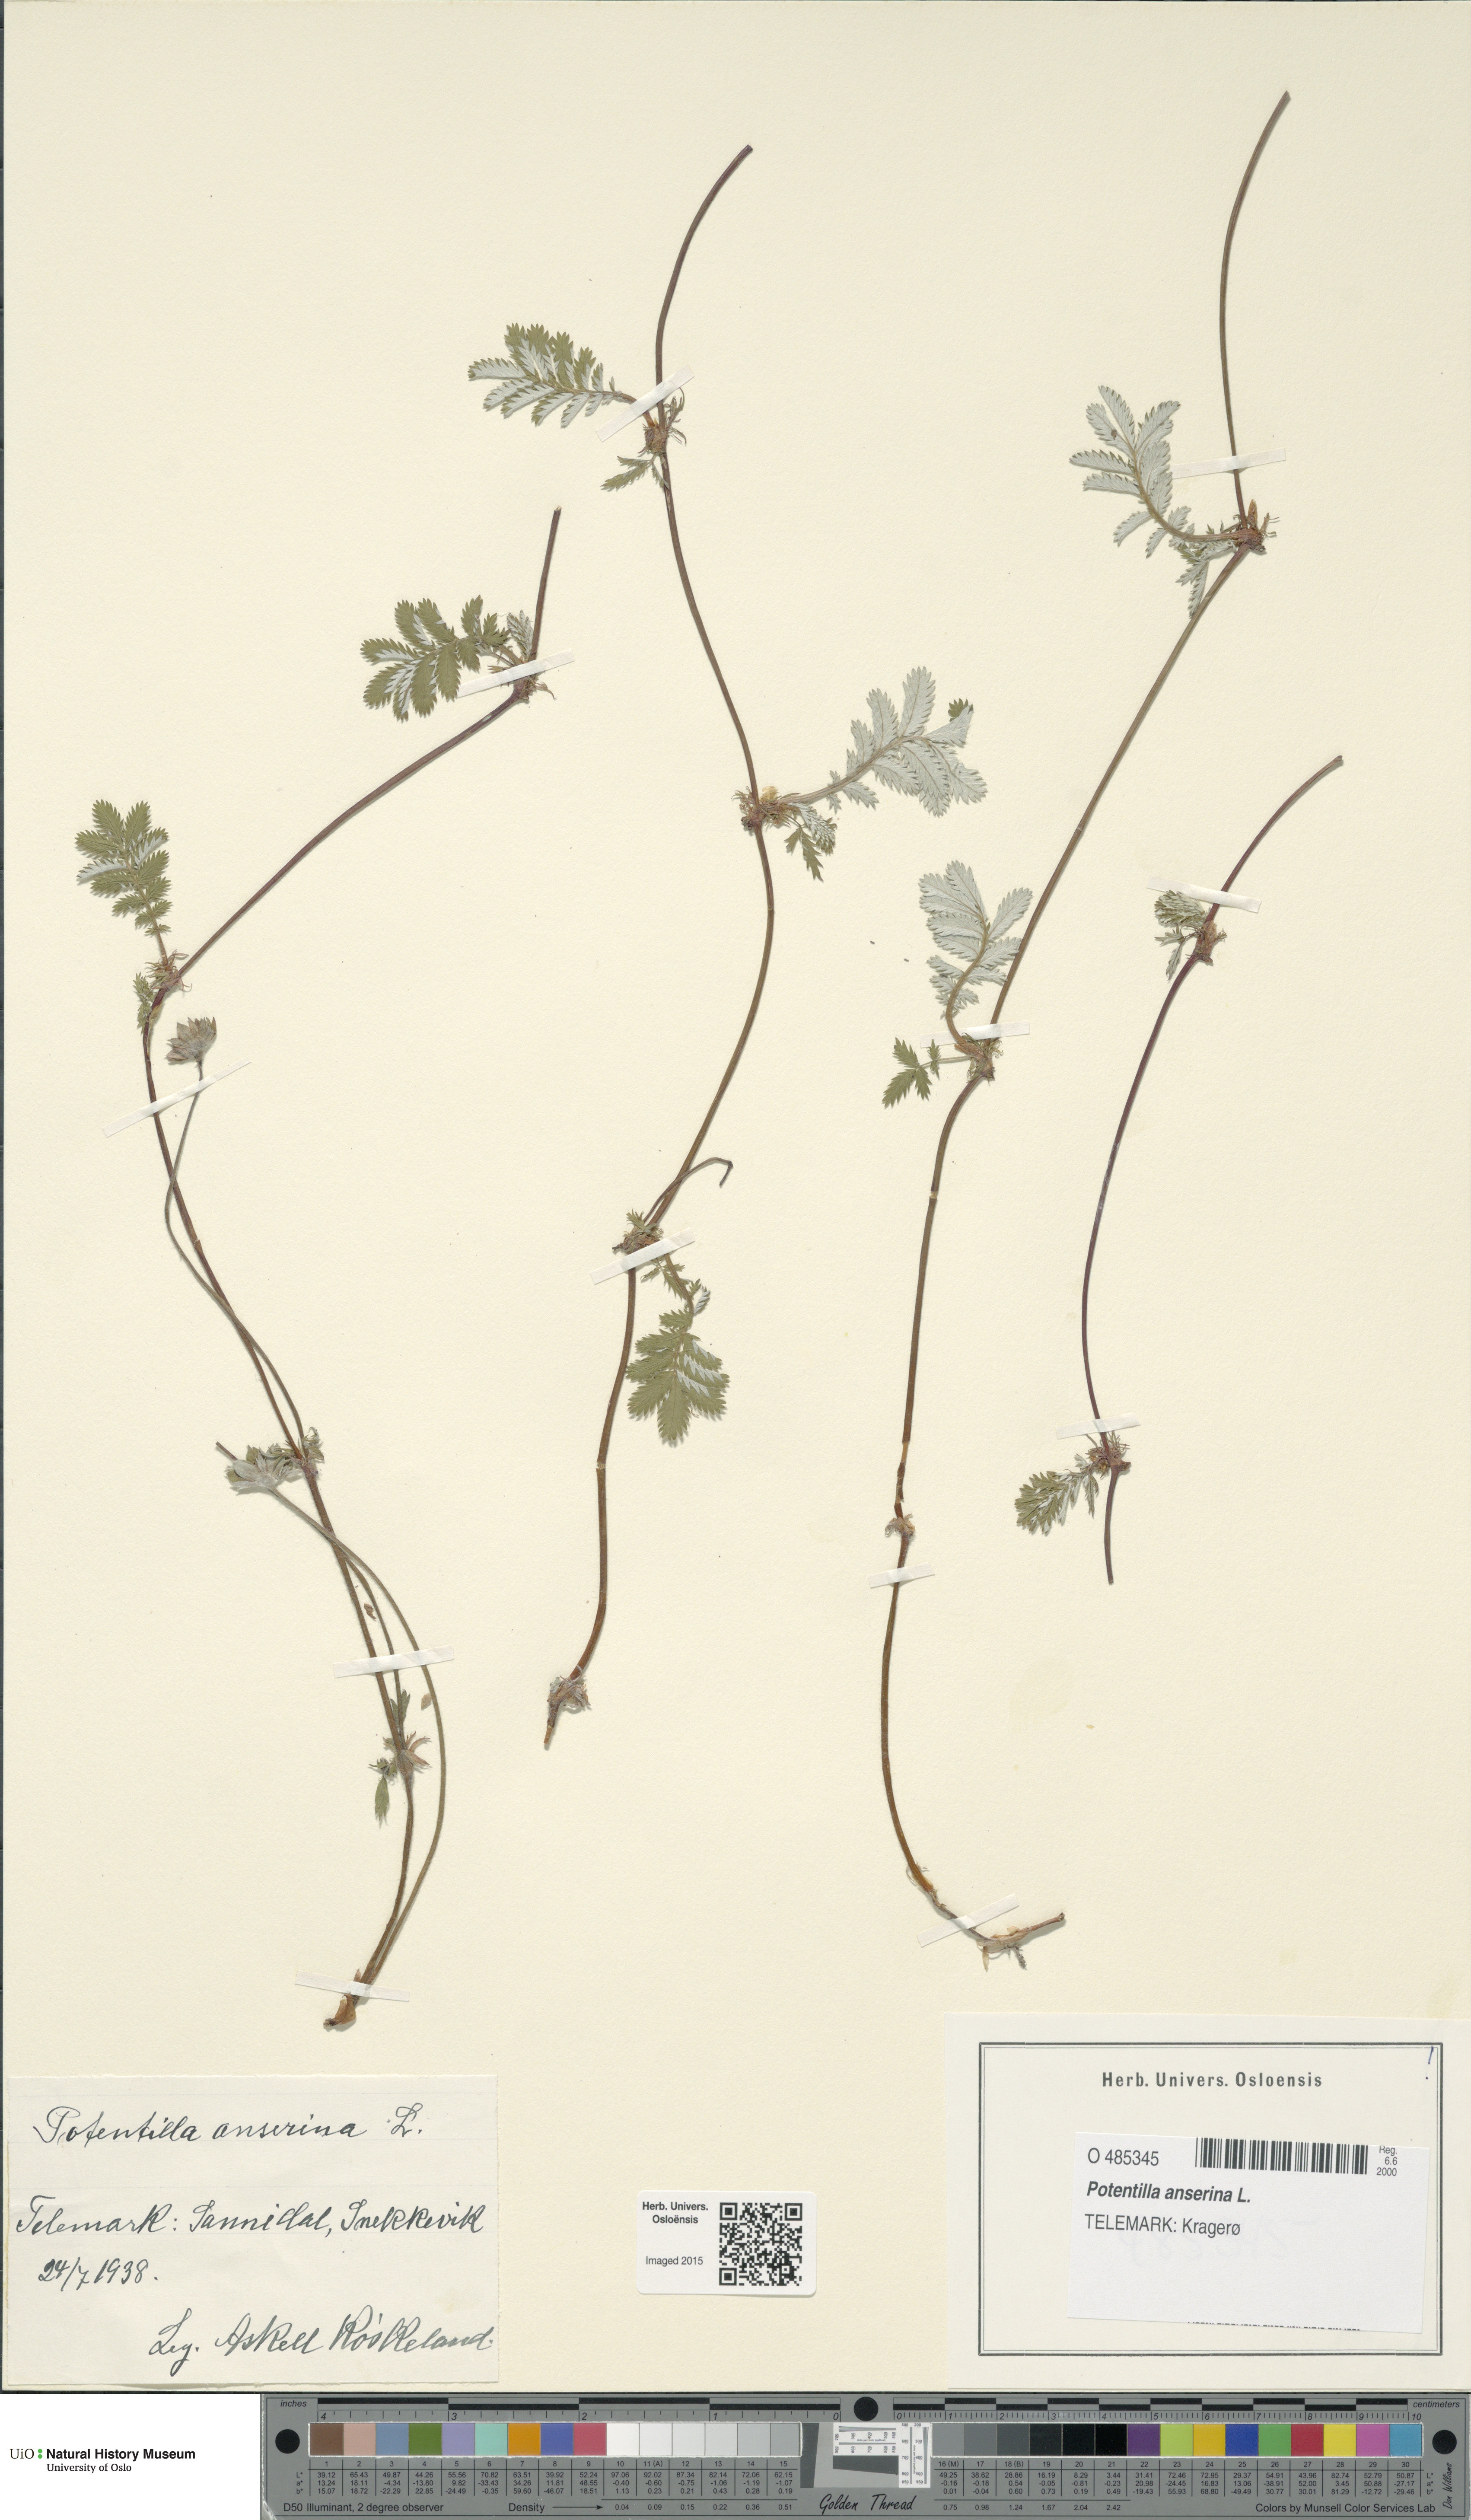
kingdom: Plantae
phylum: Tracheophyta
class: Magnoliopsida
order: Rosales
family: Rosaceae
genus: Argentina
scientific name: Argentina anserina
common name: Common silverweed
